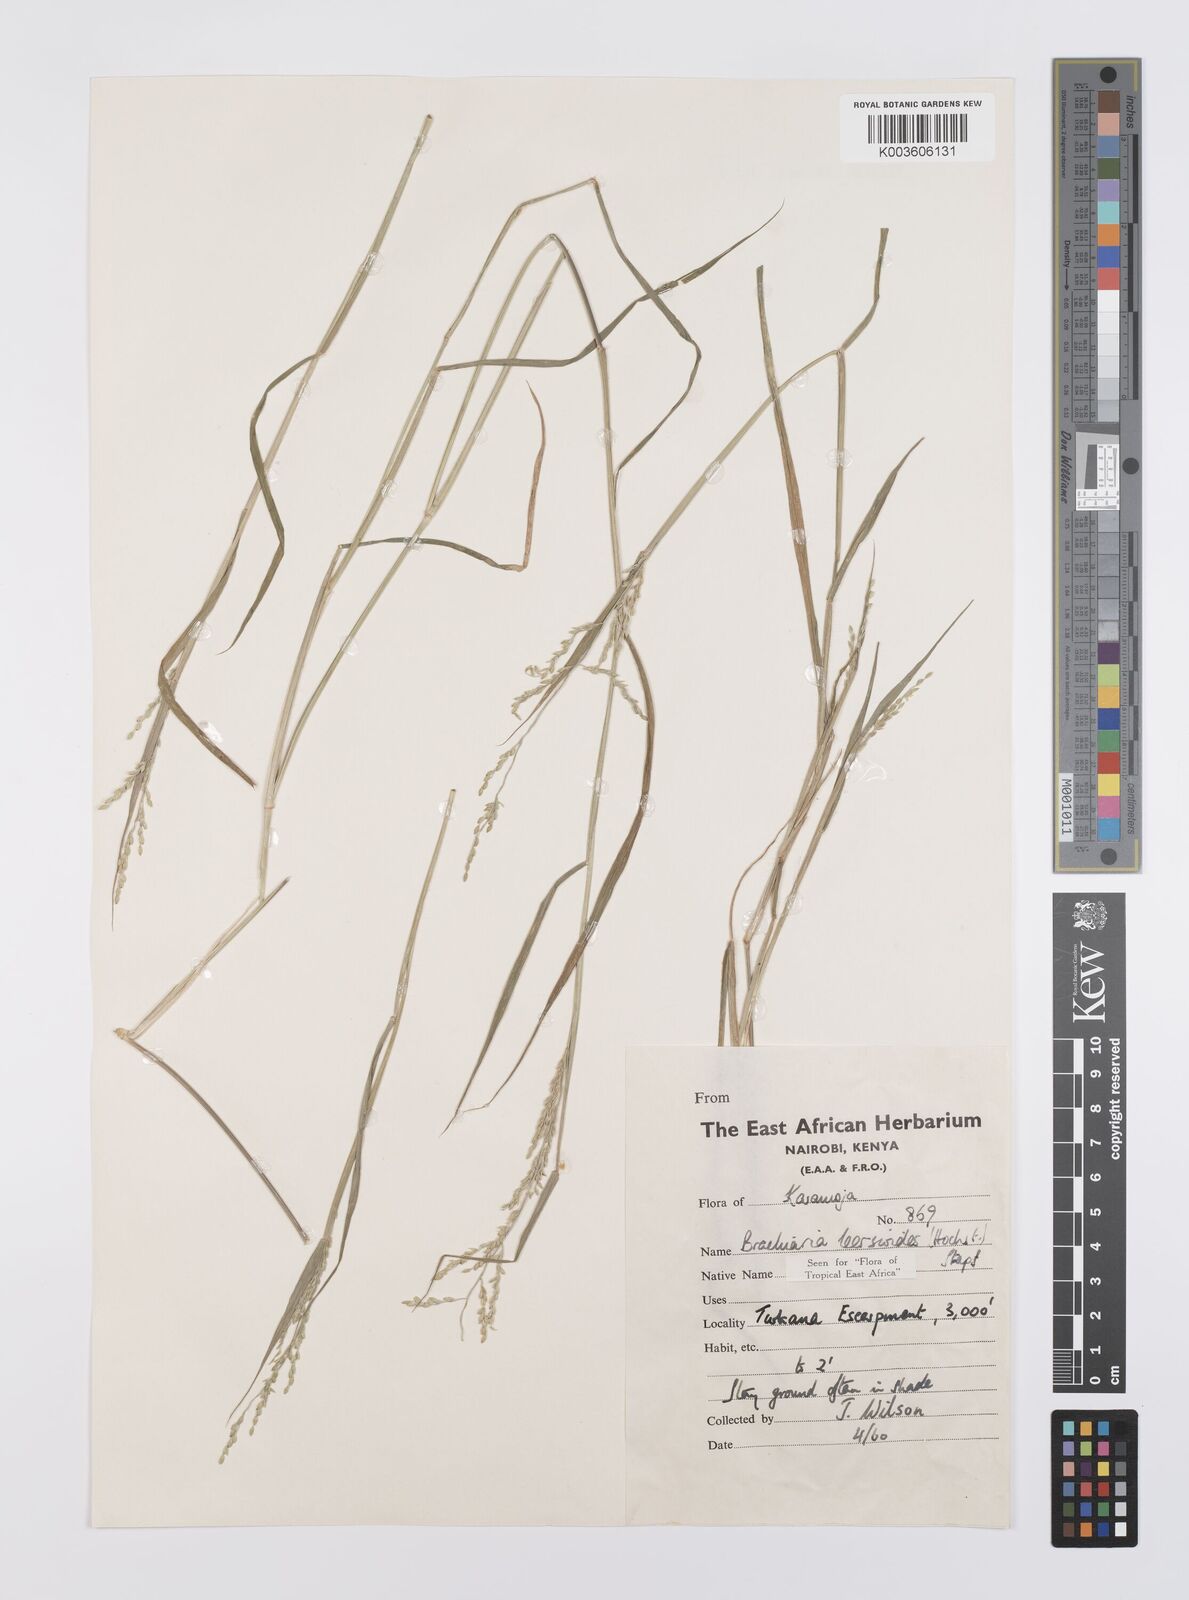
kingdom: Plantae
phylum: Tracheophyta
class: Liliopsida
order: Poales
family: Poaceae
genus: Urochloa
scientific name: Urochloa leersioides
